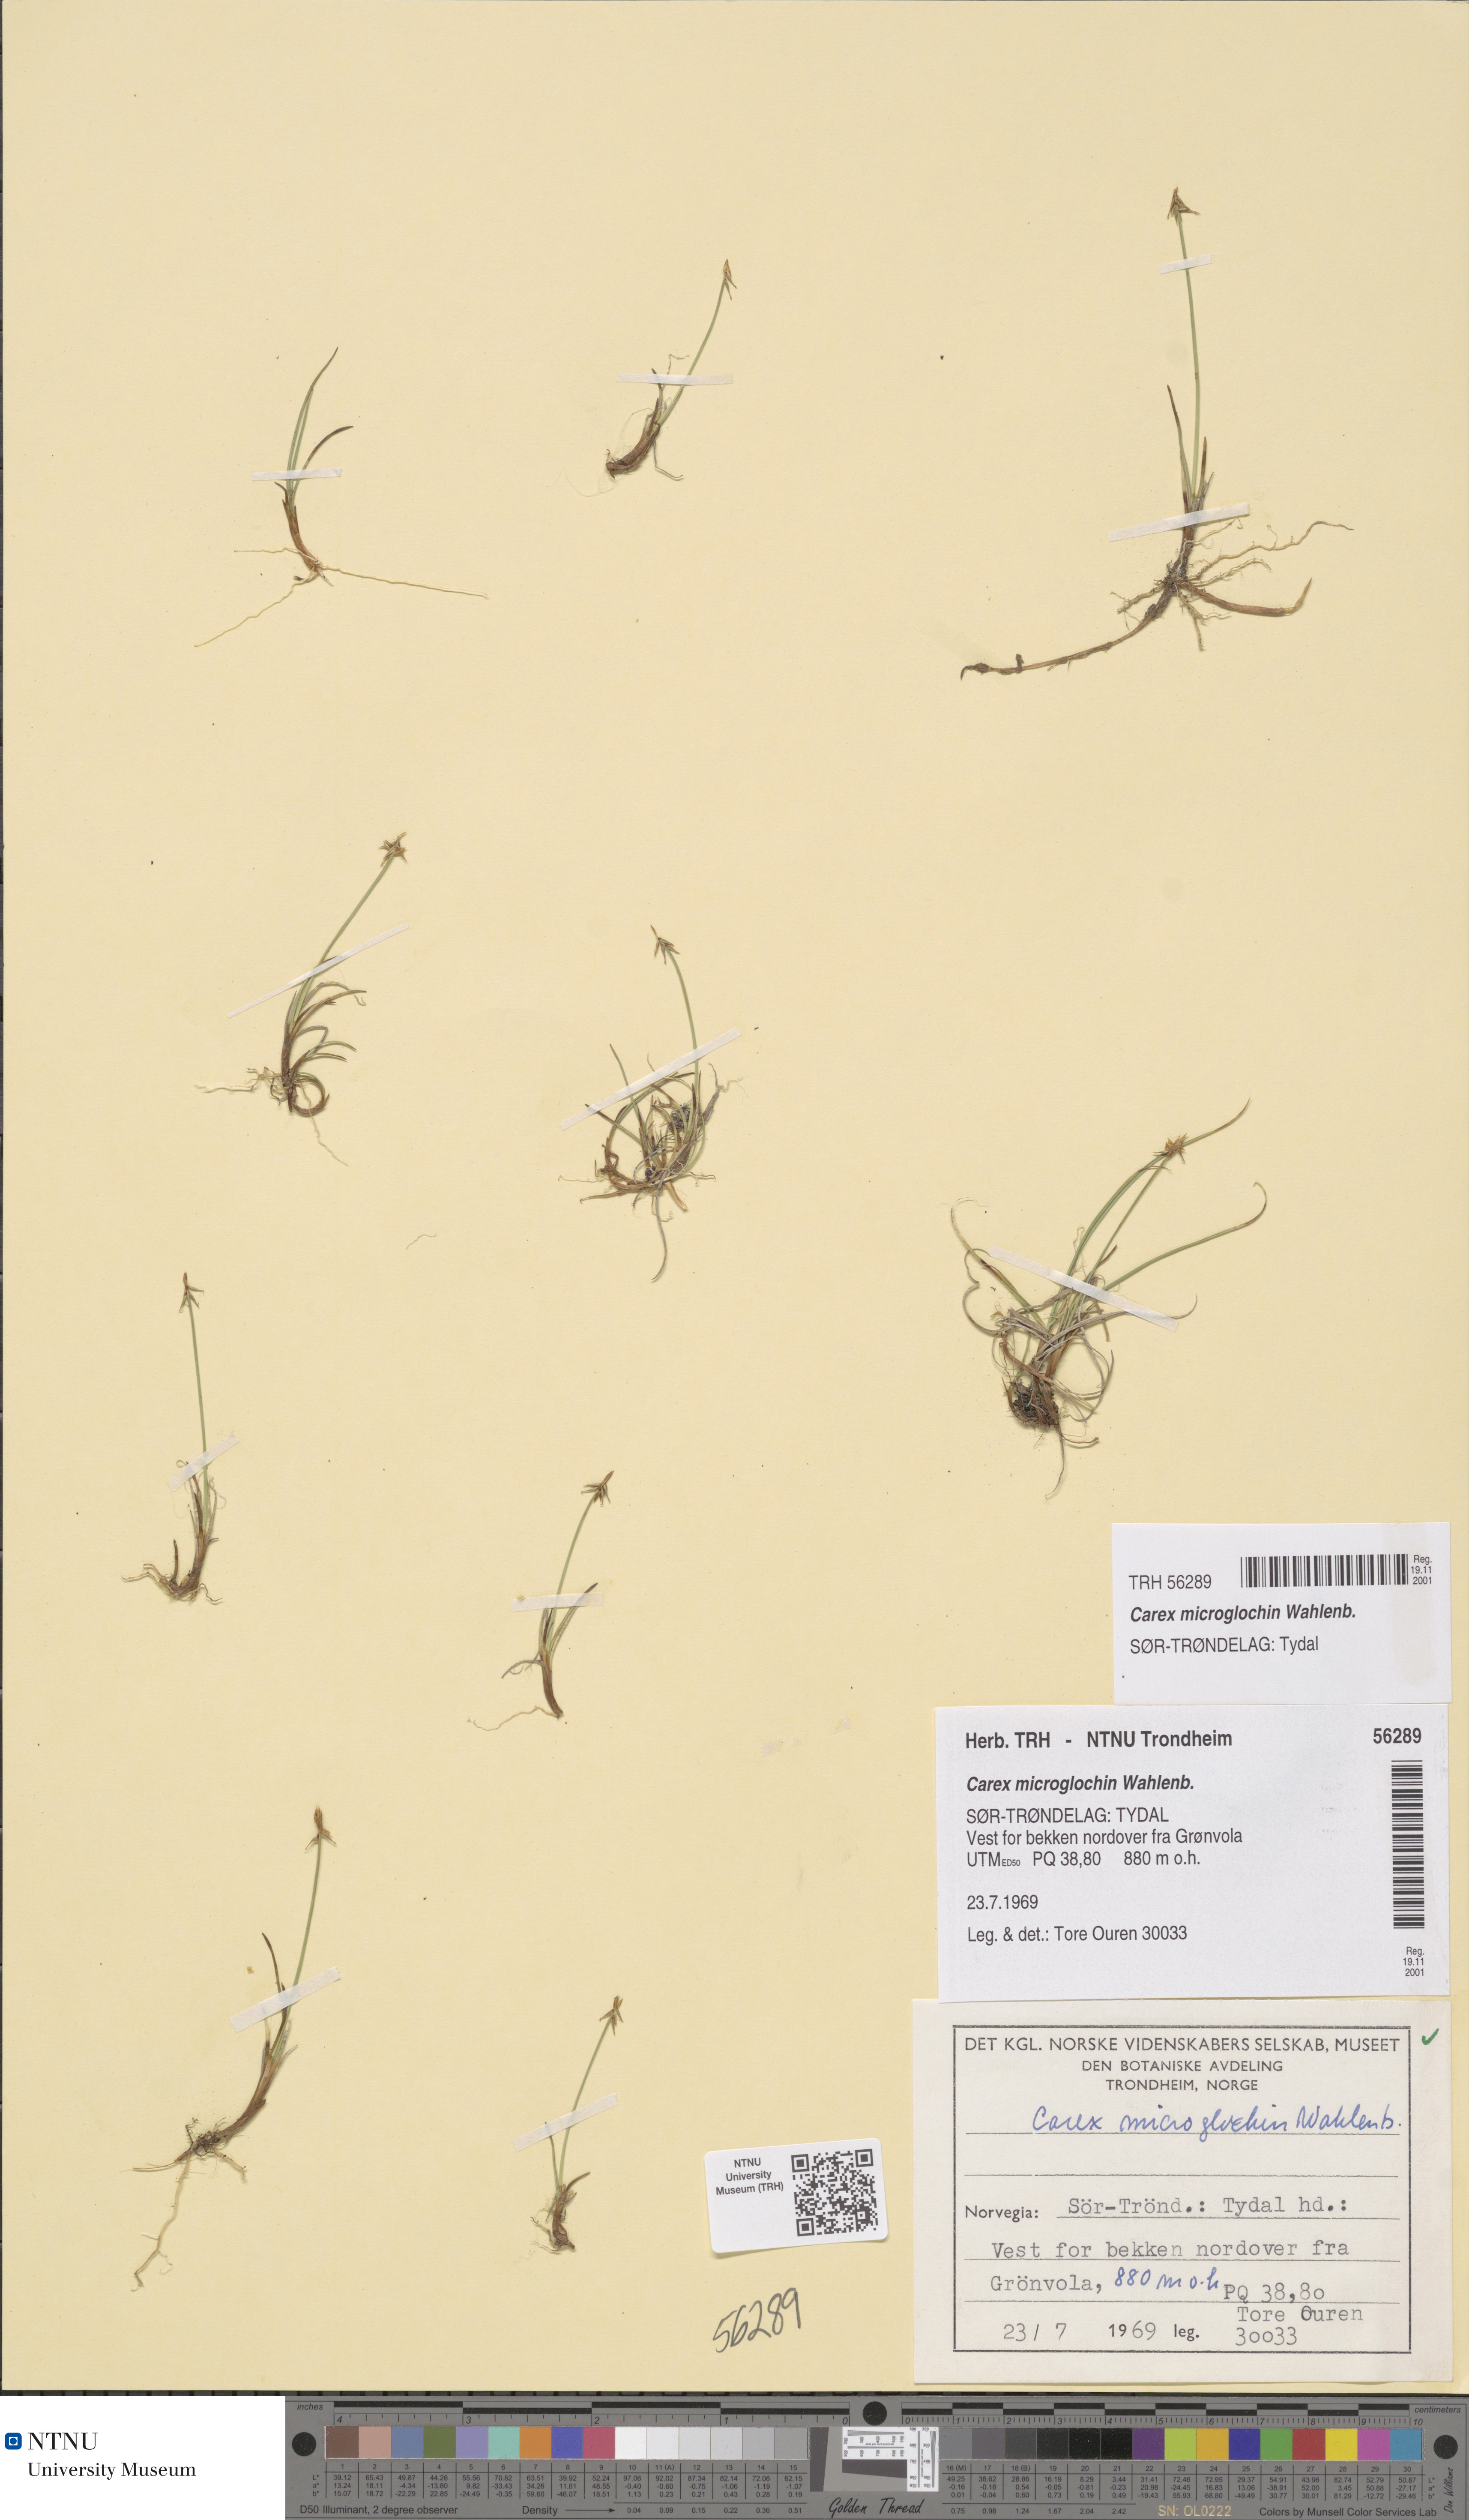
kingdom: Plantae
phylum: Tracheophyta
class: Liliopsida
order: Poales
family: Cyperaceae
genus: Carex
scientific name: Carex microglochin
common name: Bristle sedge
